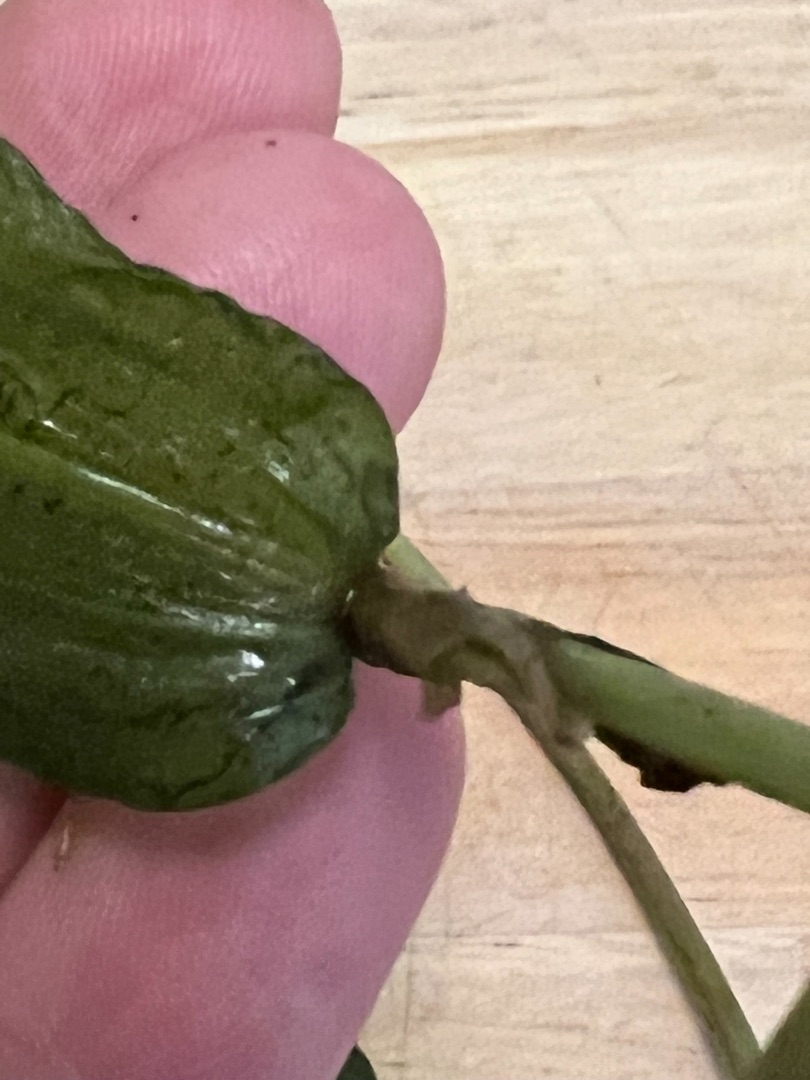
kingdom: Plantae
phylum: Tracheophyta
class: Liliopsida
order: Alismatales
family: Potamogetonaceae
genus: Potamogeton
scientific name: Potamogeton praelongus
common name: Langbladet vandaks
